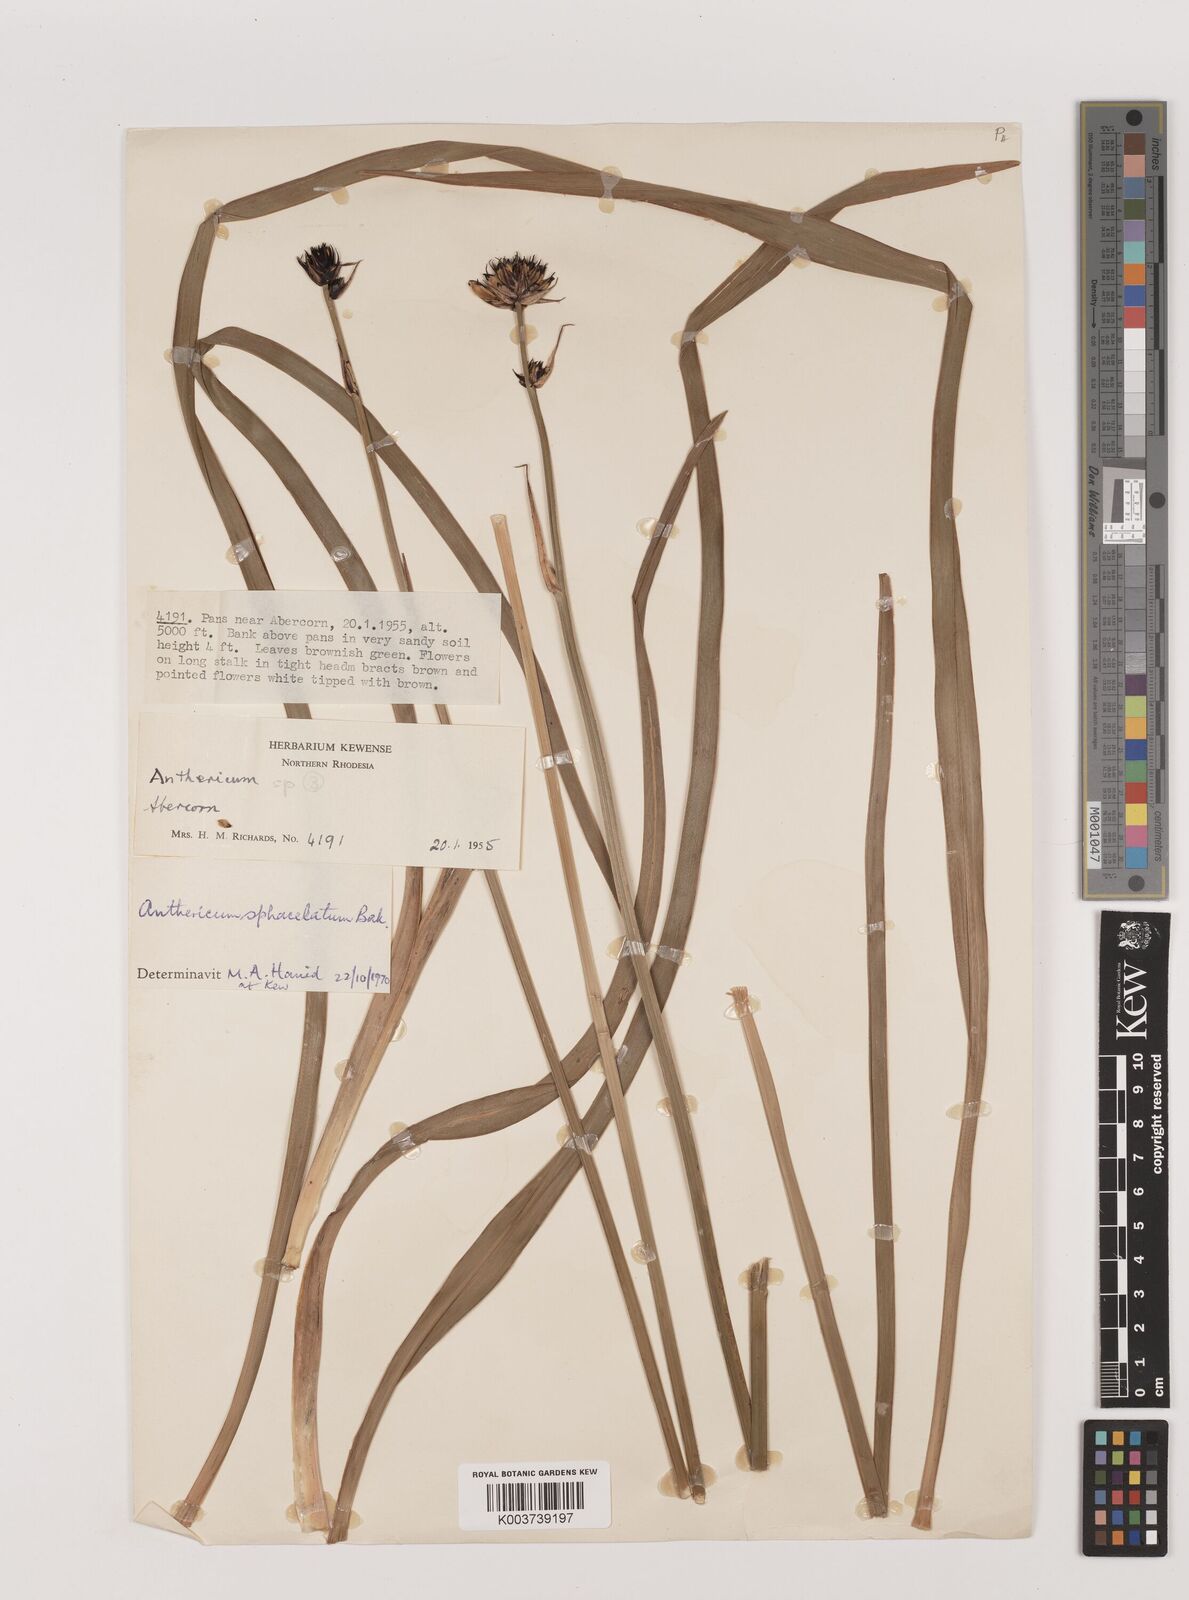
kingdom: Plantae
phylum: Tracheophyta
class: Liliopsida
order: Asparagales
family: Asparagaceae
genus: Chlorophytum
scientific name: Chlorophytum sphacelatum
